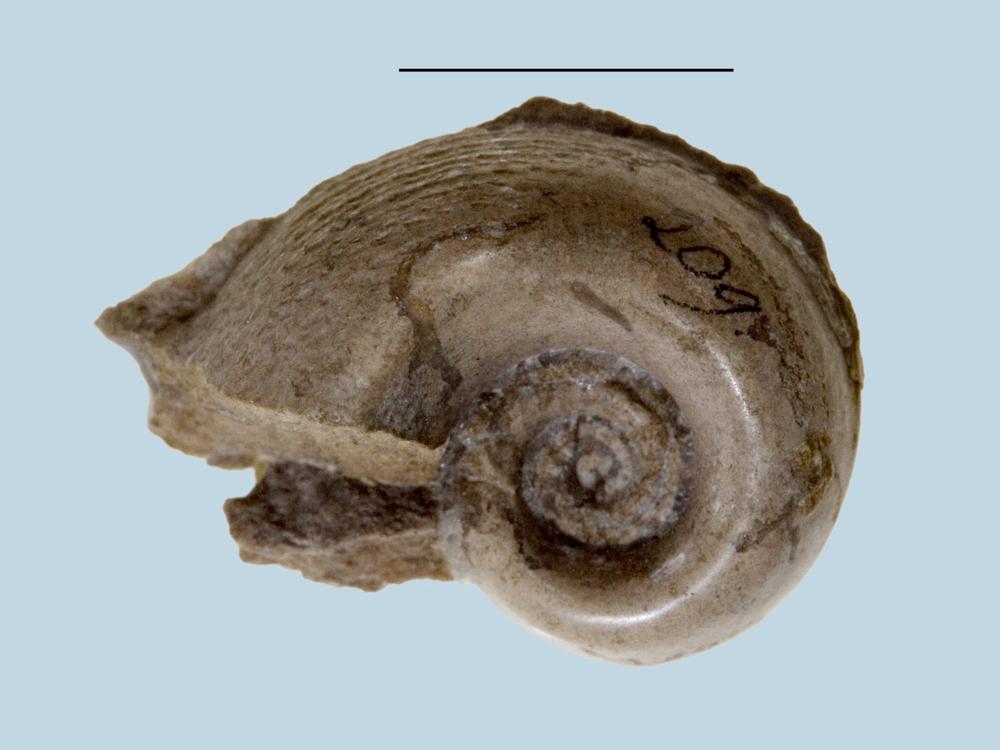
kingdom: Animalia
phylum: Mollusca
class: Gastropoda
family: Bucaniidae
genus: Bucania
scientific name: Bucania Bellerophon radiata
